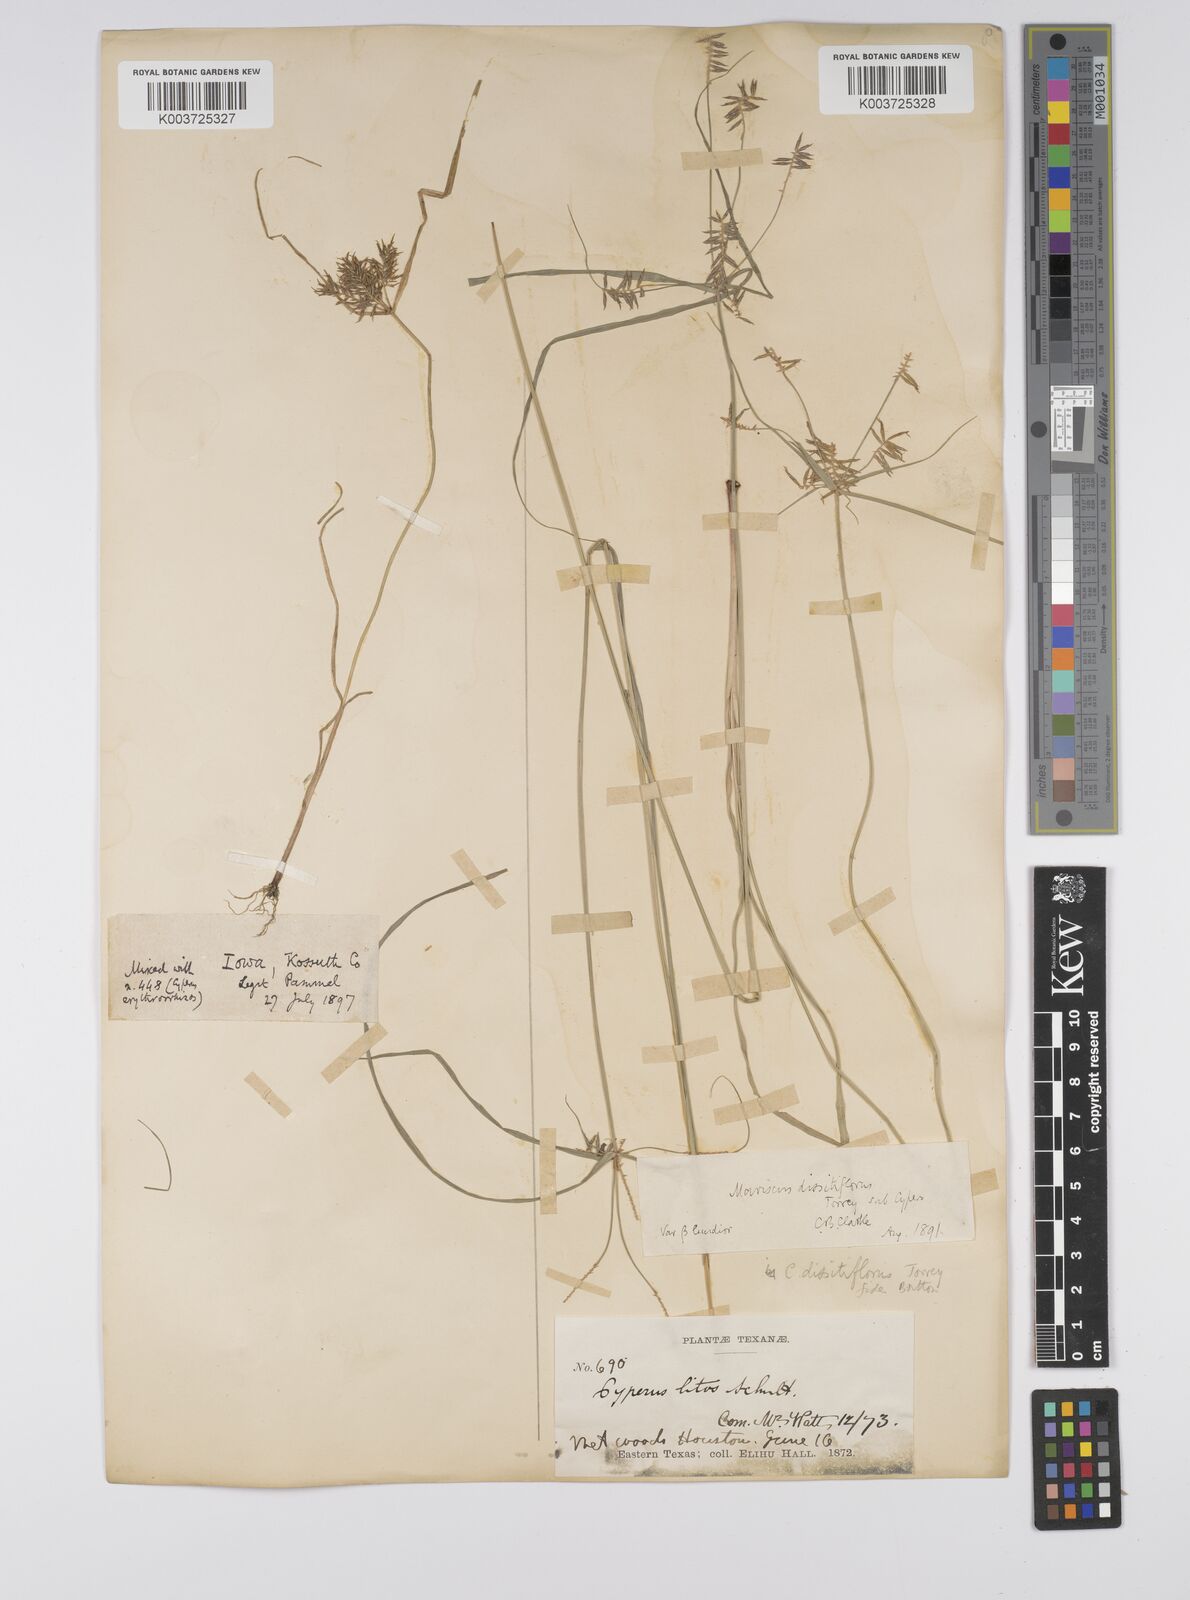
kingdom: Plantae
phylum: Tracheophyta
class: Liliopsida
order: Poales
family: Cyperaceae
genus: Cyperus
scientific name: Cyperus
